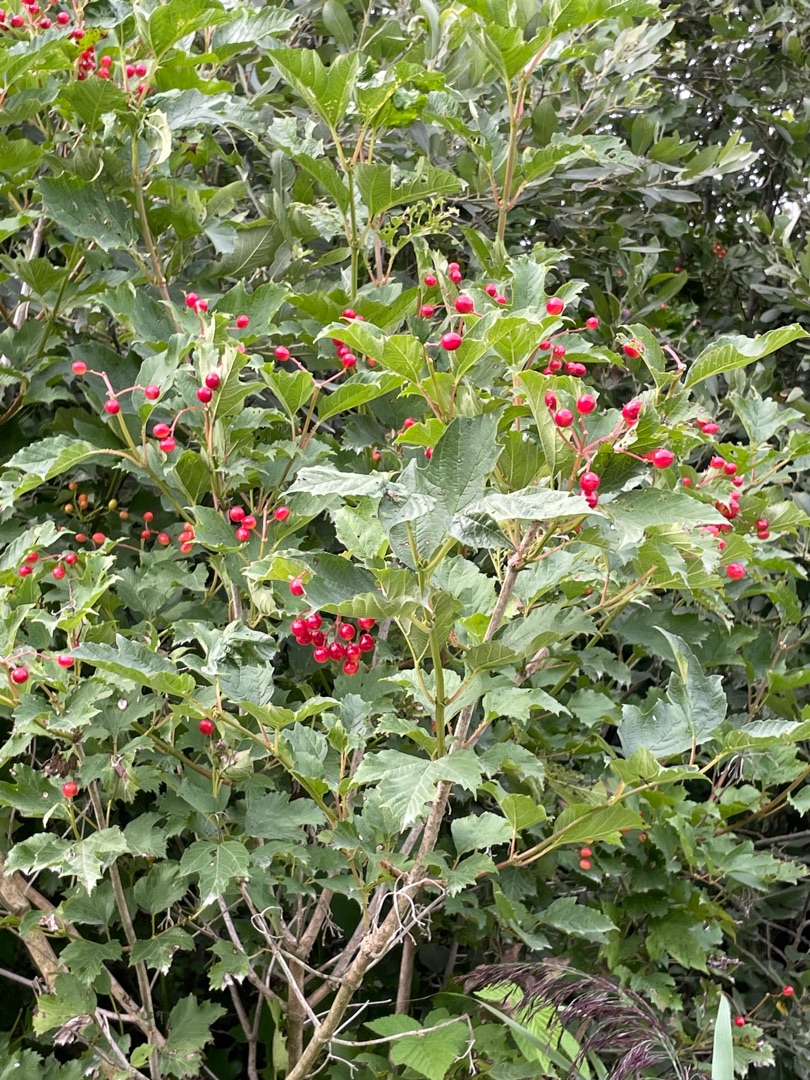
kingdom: Plantae
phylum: Tracheophyta
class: Magnoliopsida
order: Dipsacales
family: Viburnaceae
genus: Viburnum
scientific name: Viburnum opulus
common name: Kvalkved
